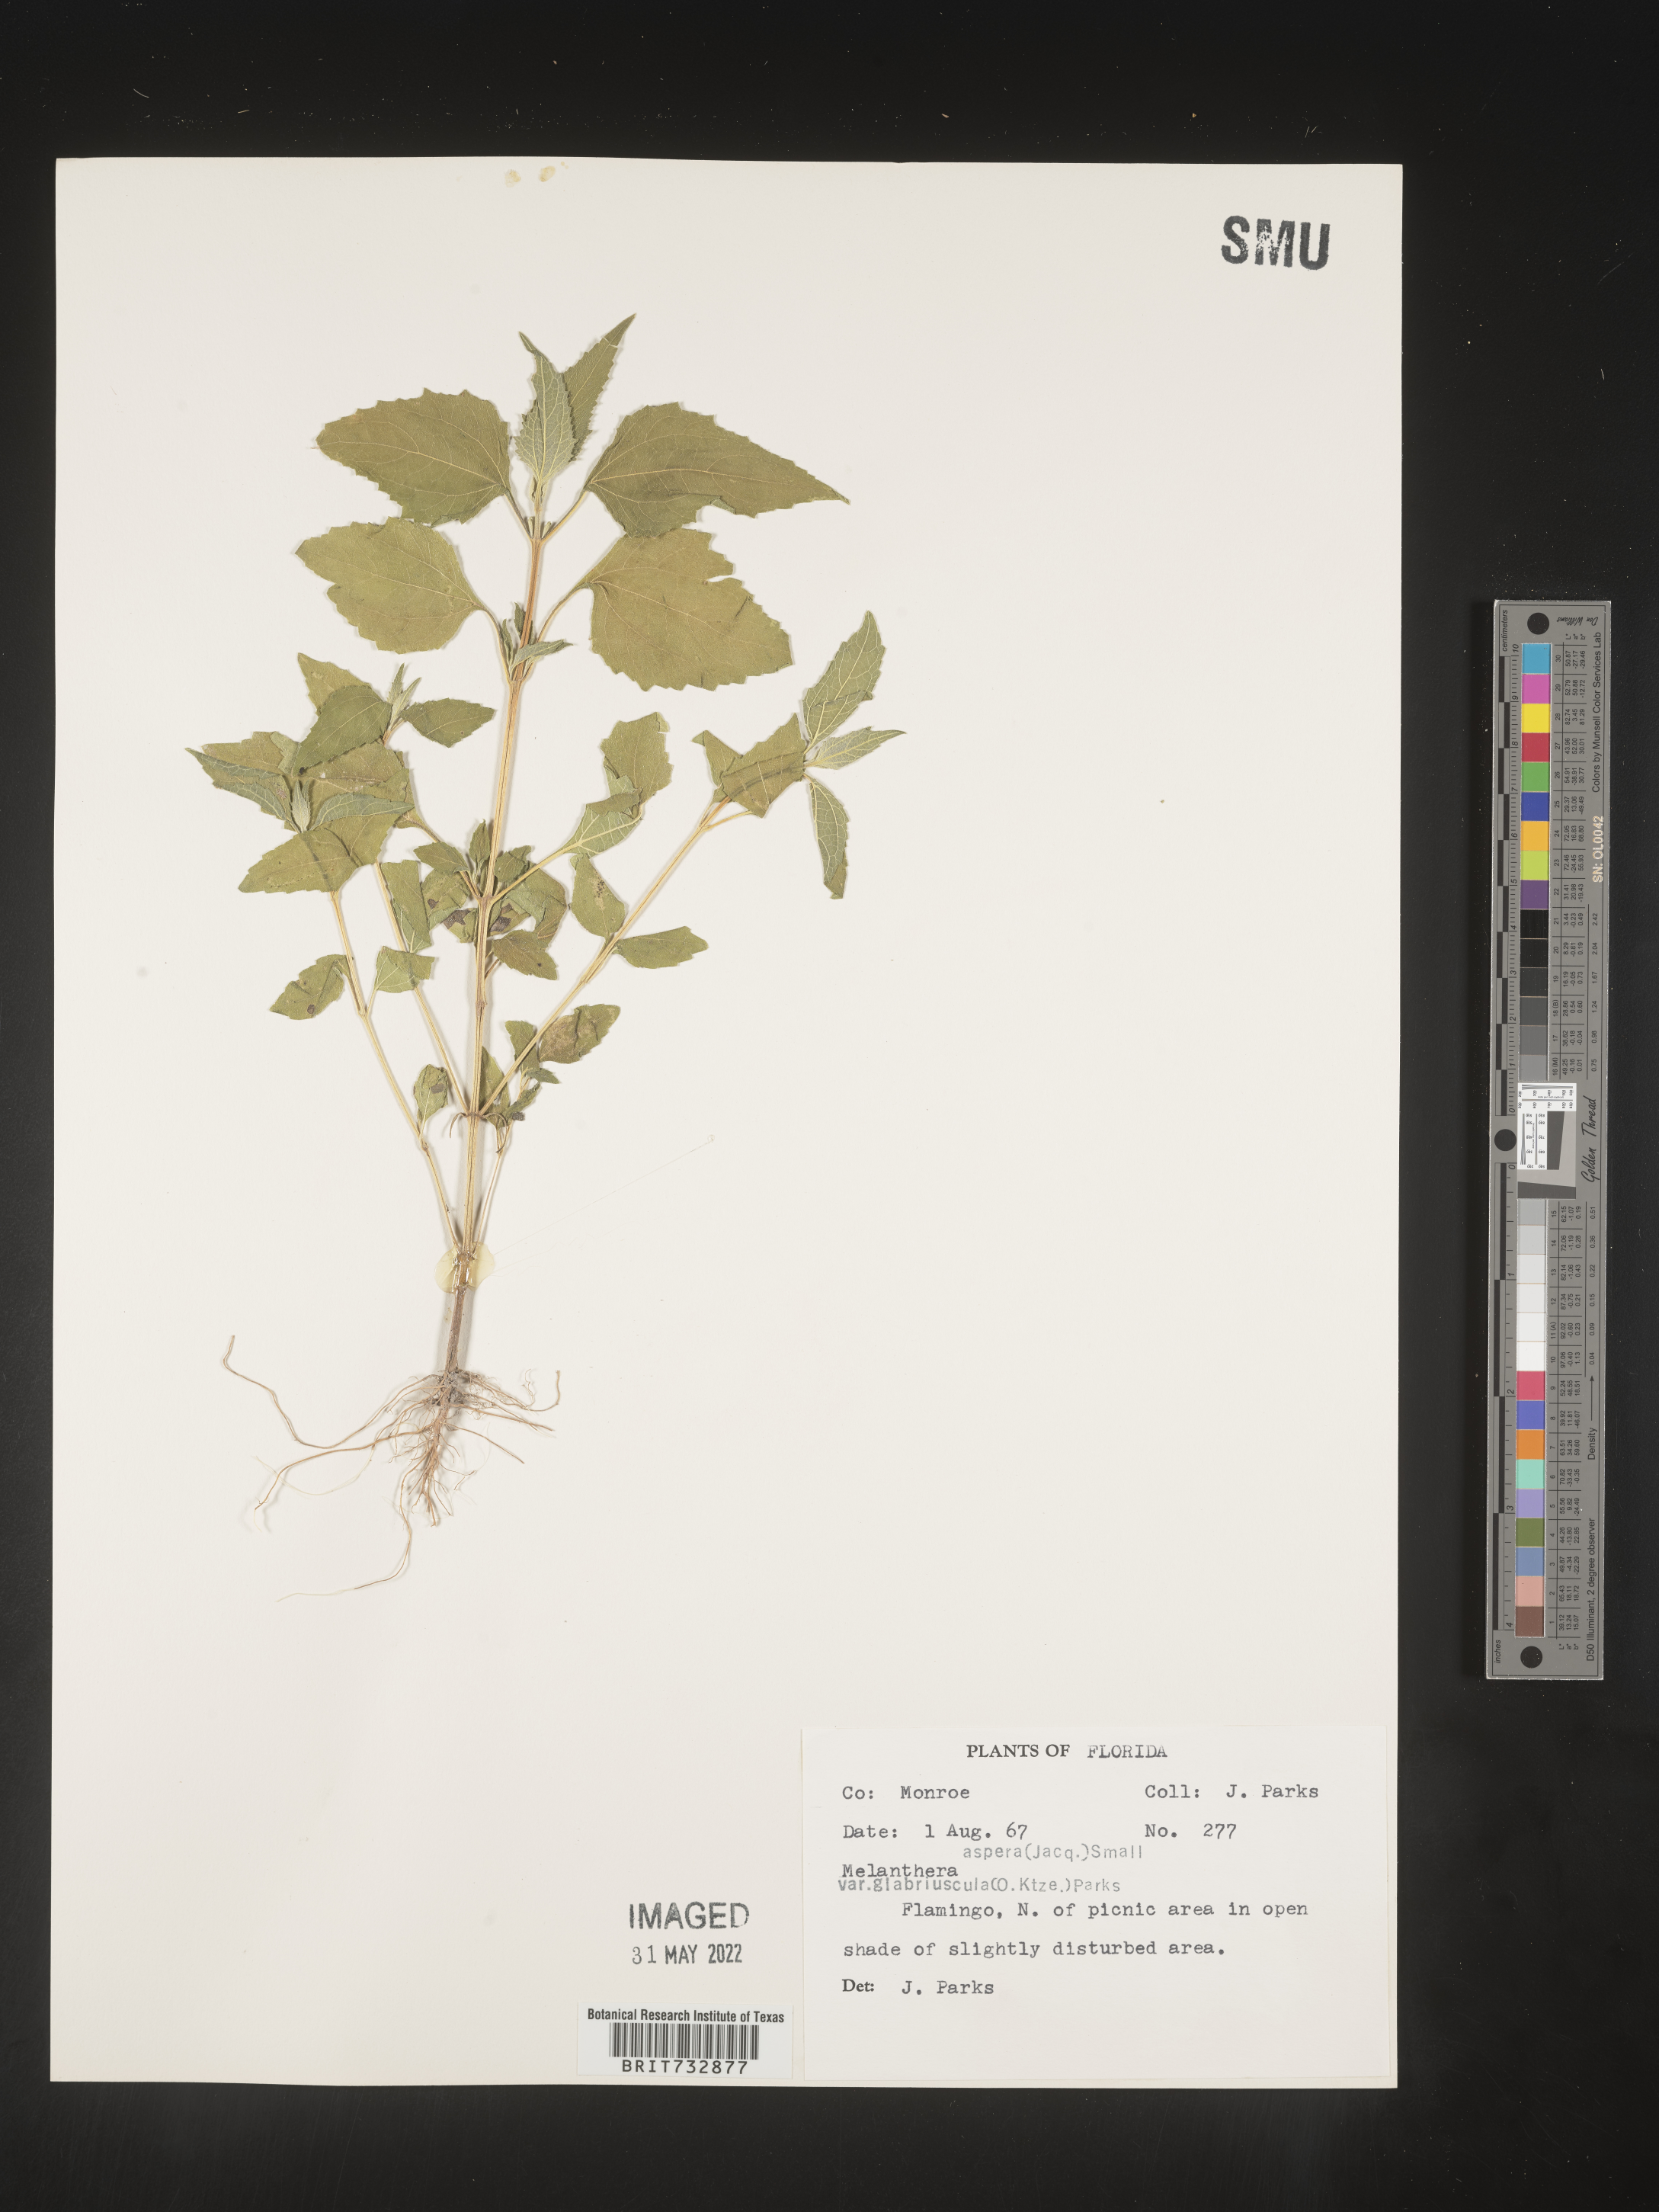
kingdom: Plantae
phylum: Tracheophyta
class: Magnoliopsida
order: Asterales
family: Asteraceae
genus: Melanthera
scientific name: Melanthera nivea
